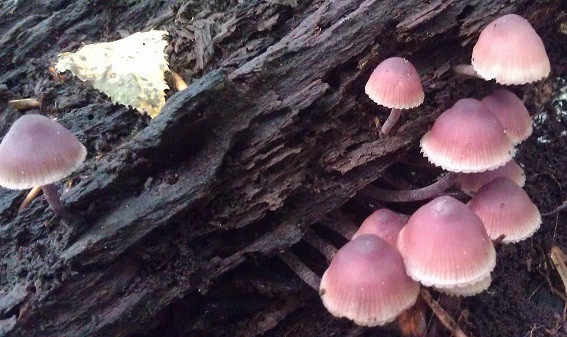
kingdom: Fungi
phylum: Basidiomycota
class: Agaricomycetes
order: Agaricales
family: Mycenaceae
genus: Mycena
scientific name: Mycena haematopus
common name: blødende huesvamp
